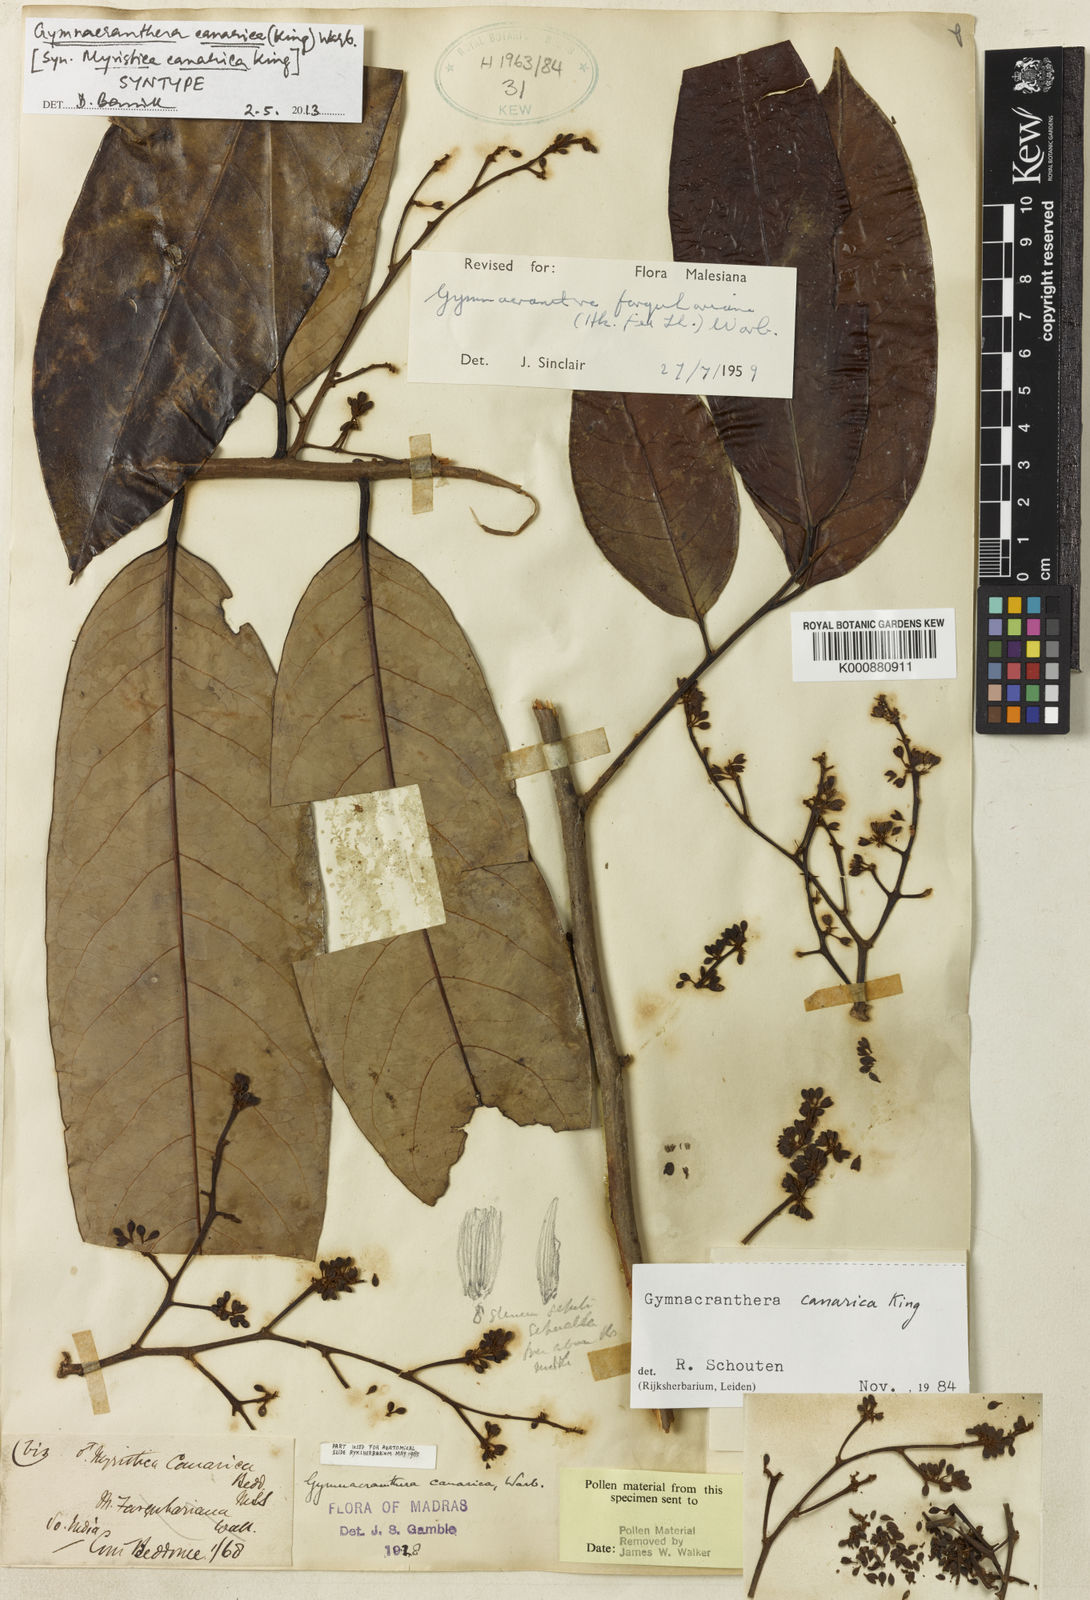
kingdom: Plantae
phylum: Tracheophyta
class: Magnoliopsida
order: Magnoliales
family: Myristicaceae
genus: Gymnacranthera
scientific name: Gymnacranthera canarica
